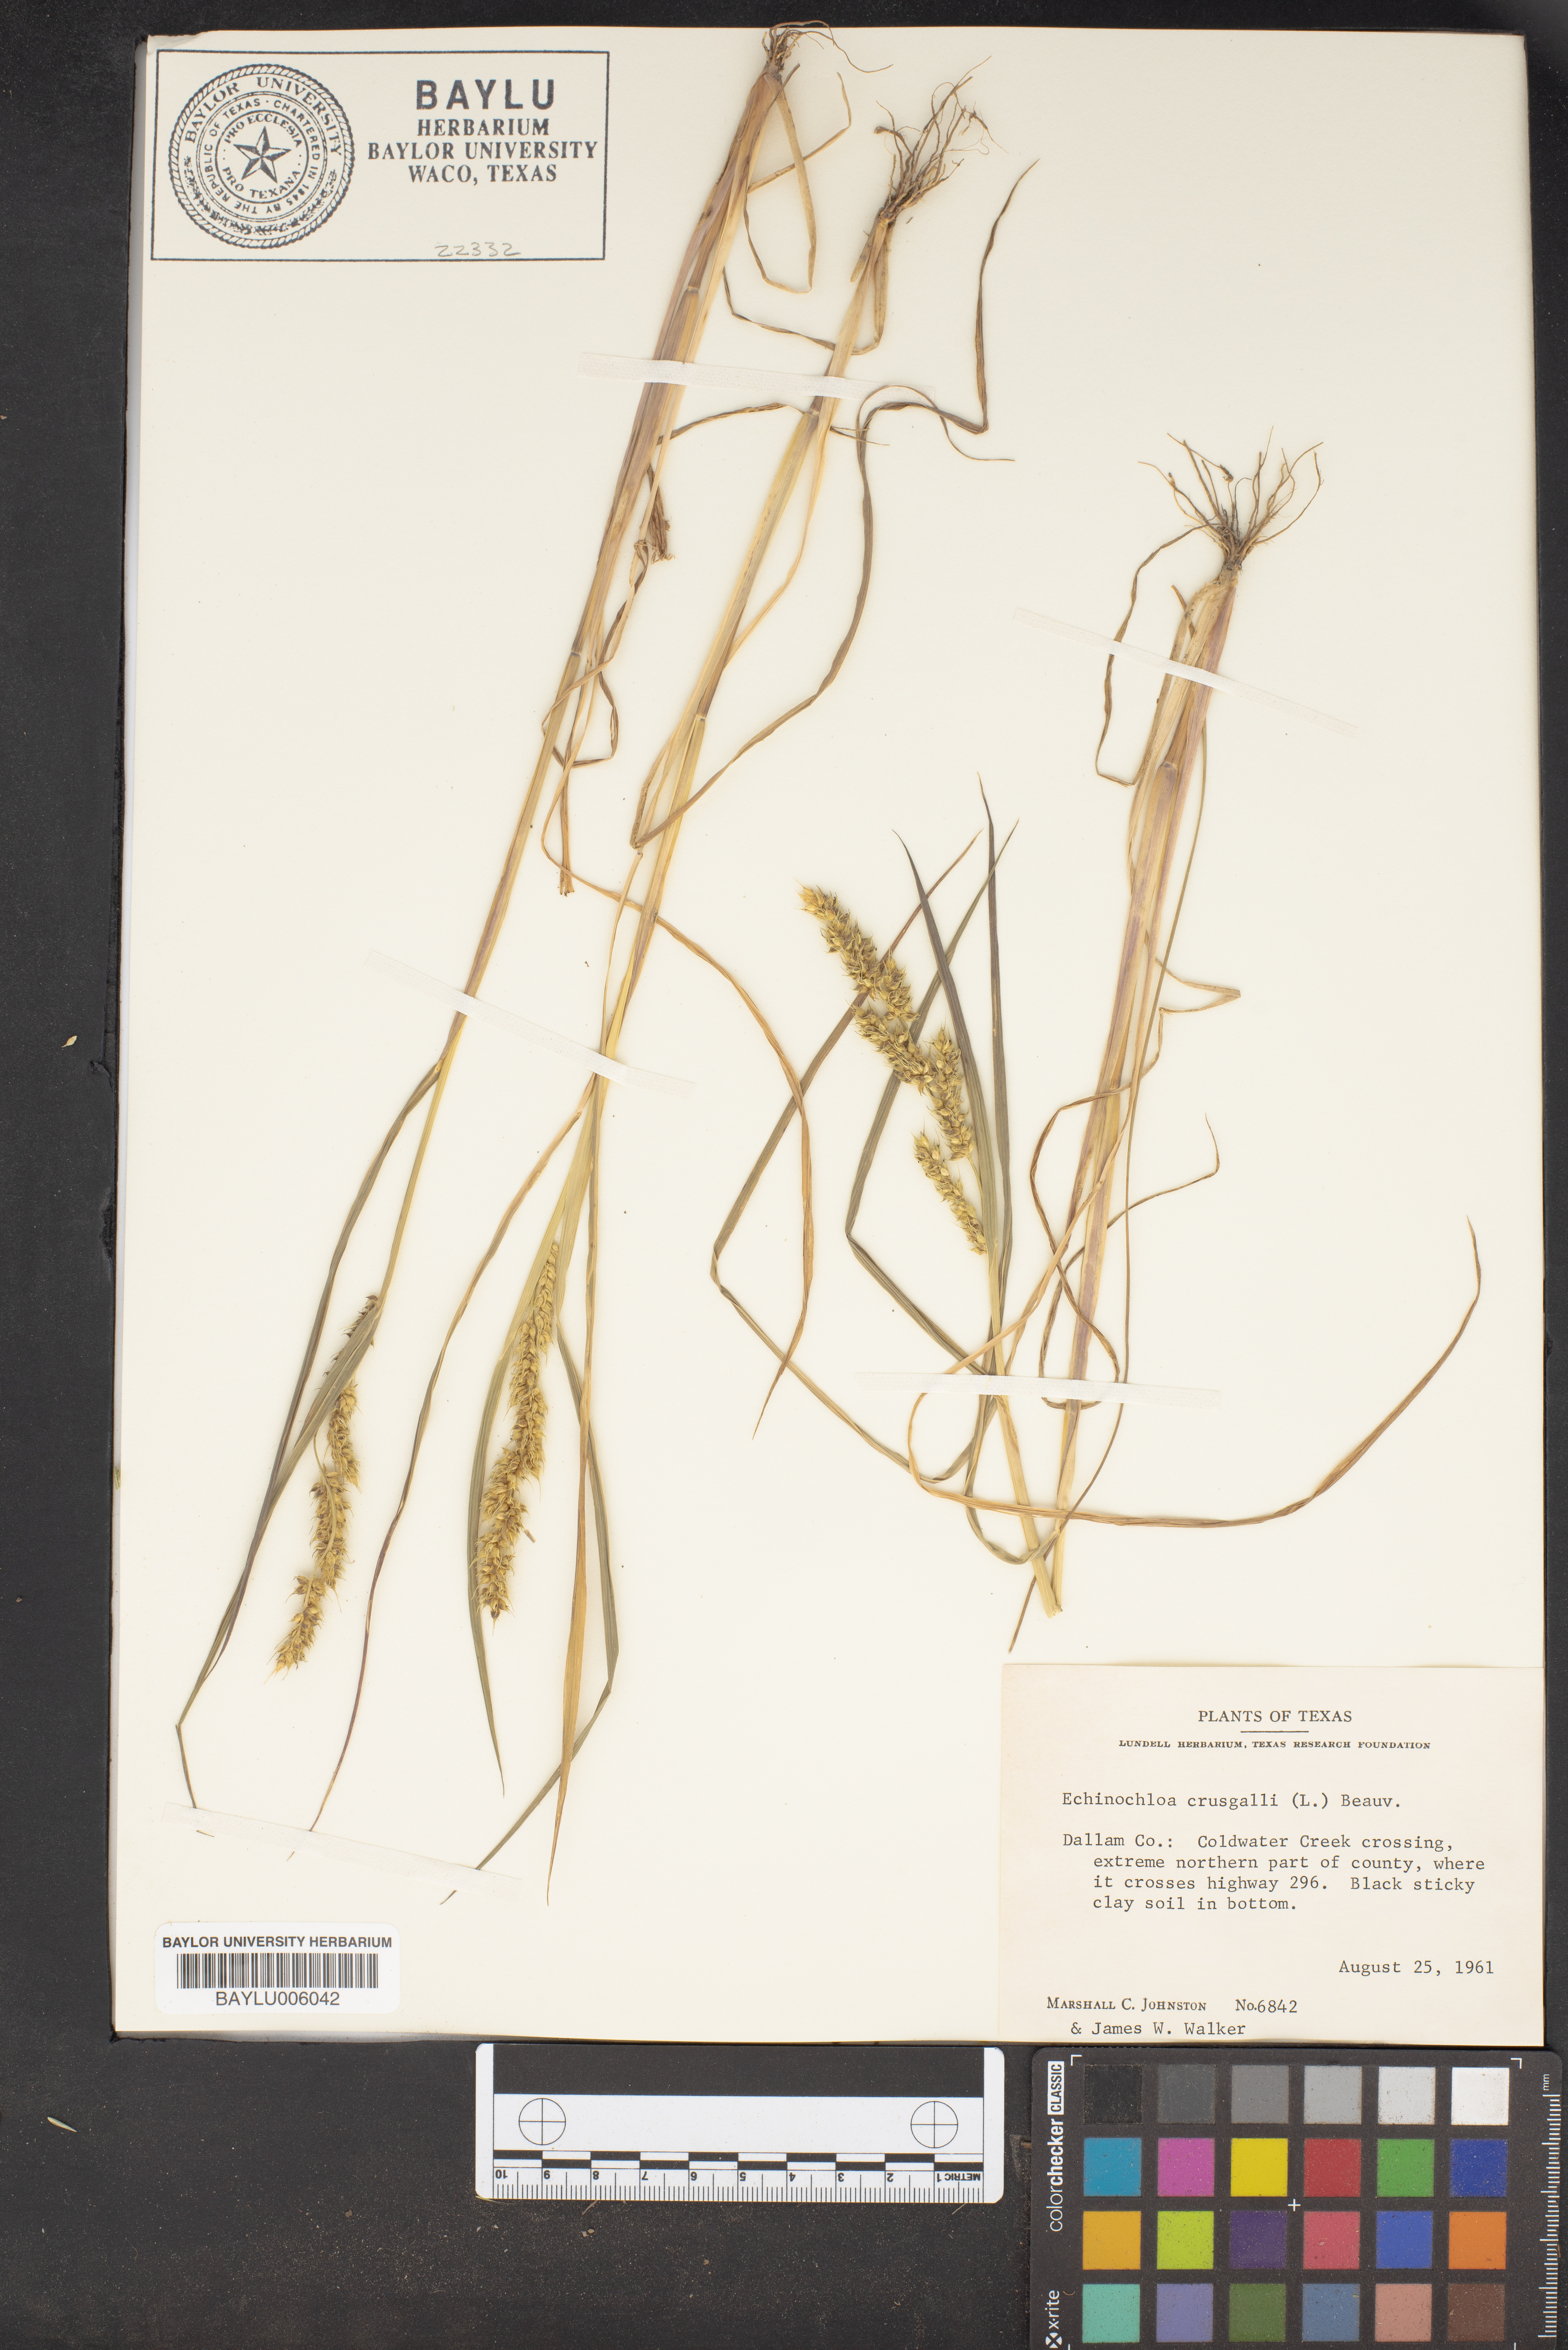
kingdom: Plantae
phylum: Tracheophyta
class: Liliopsida
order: Poales
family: Poaceae
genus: Echinochloa
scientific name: Echinochloa crus-galli
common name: Cockspur
